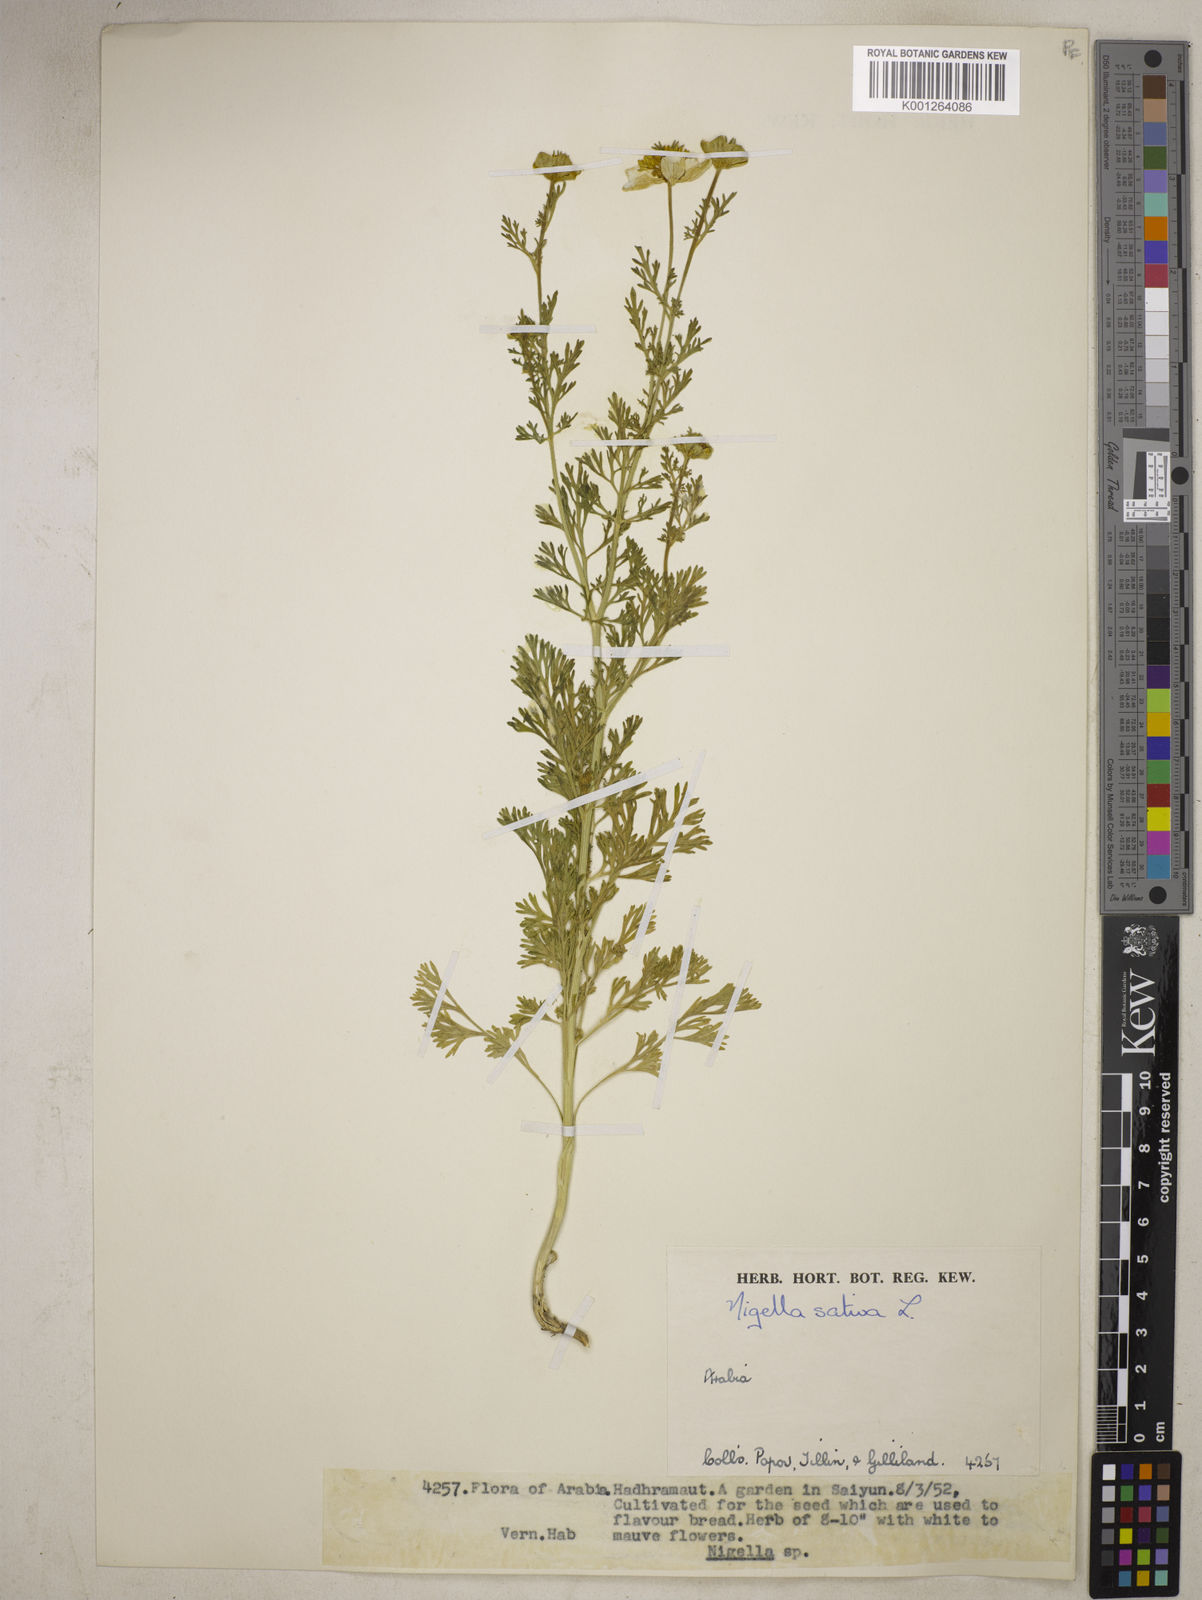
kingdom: Plantae
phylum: Tracheophyta
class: Magnoliopsida
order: Ranunculales
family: Ranunculaceae
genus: Nigella
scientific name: Nigella sativa
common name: Black-cumin
